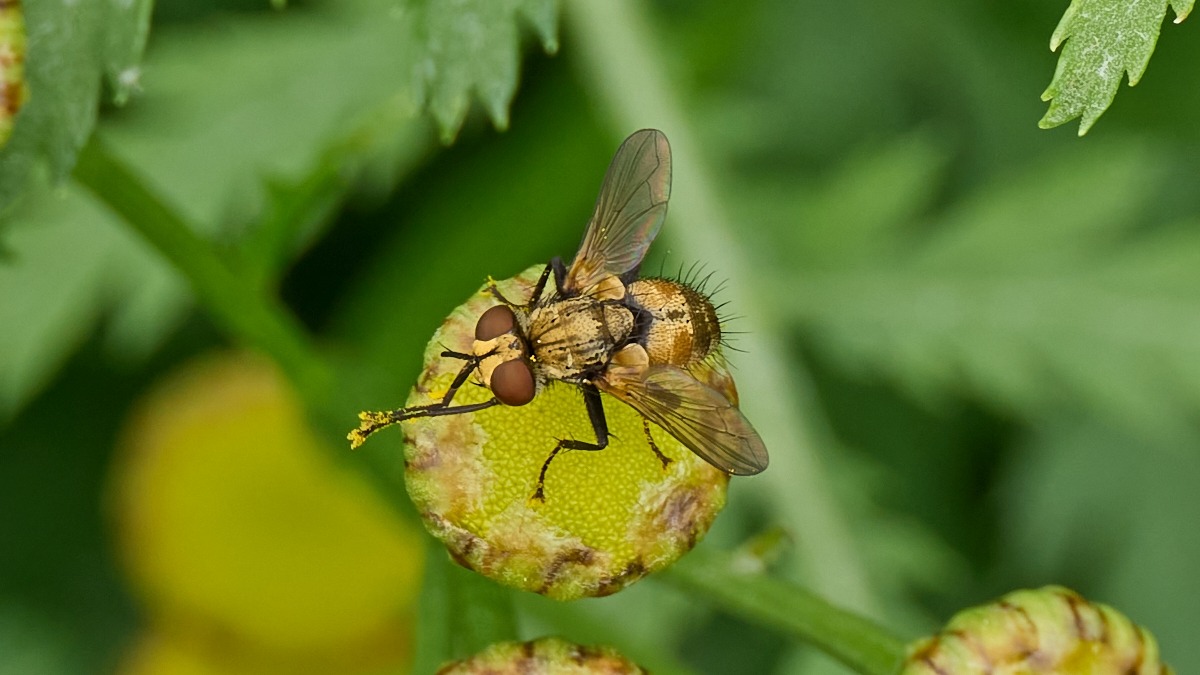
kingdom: Animalia
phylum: Arthropoda
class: Insecta
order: Diptera
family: Tachinidae
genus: Eliozeta
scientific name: Eliozeta pellucens
